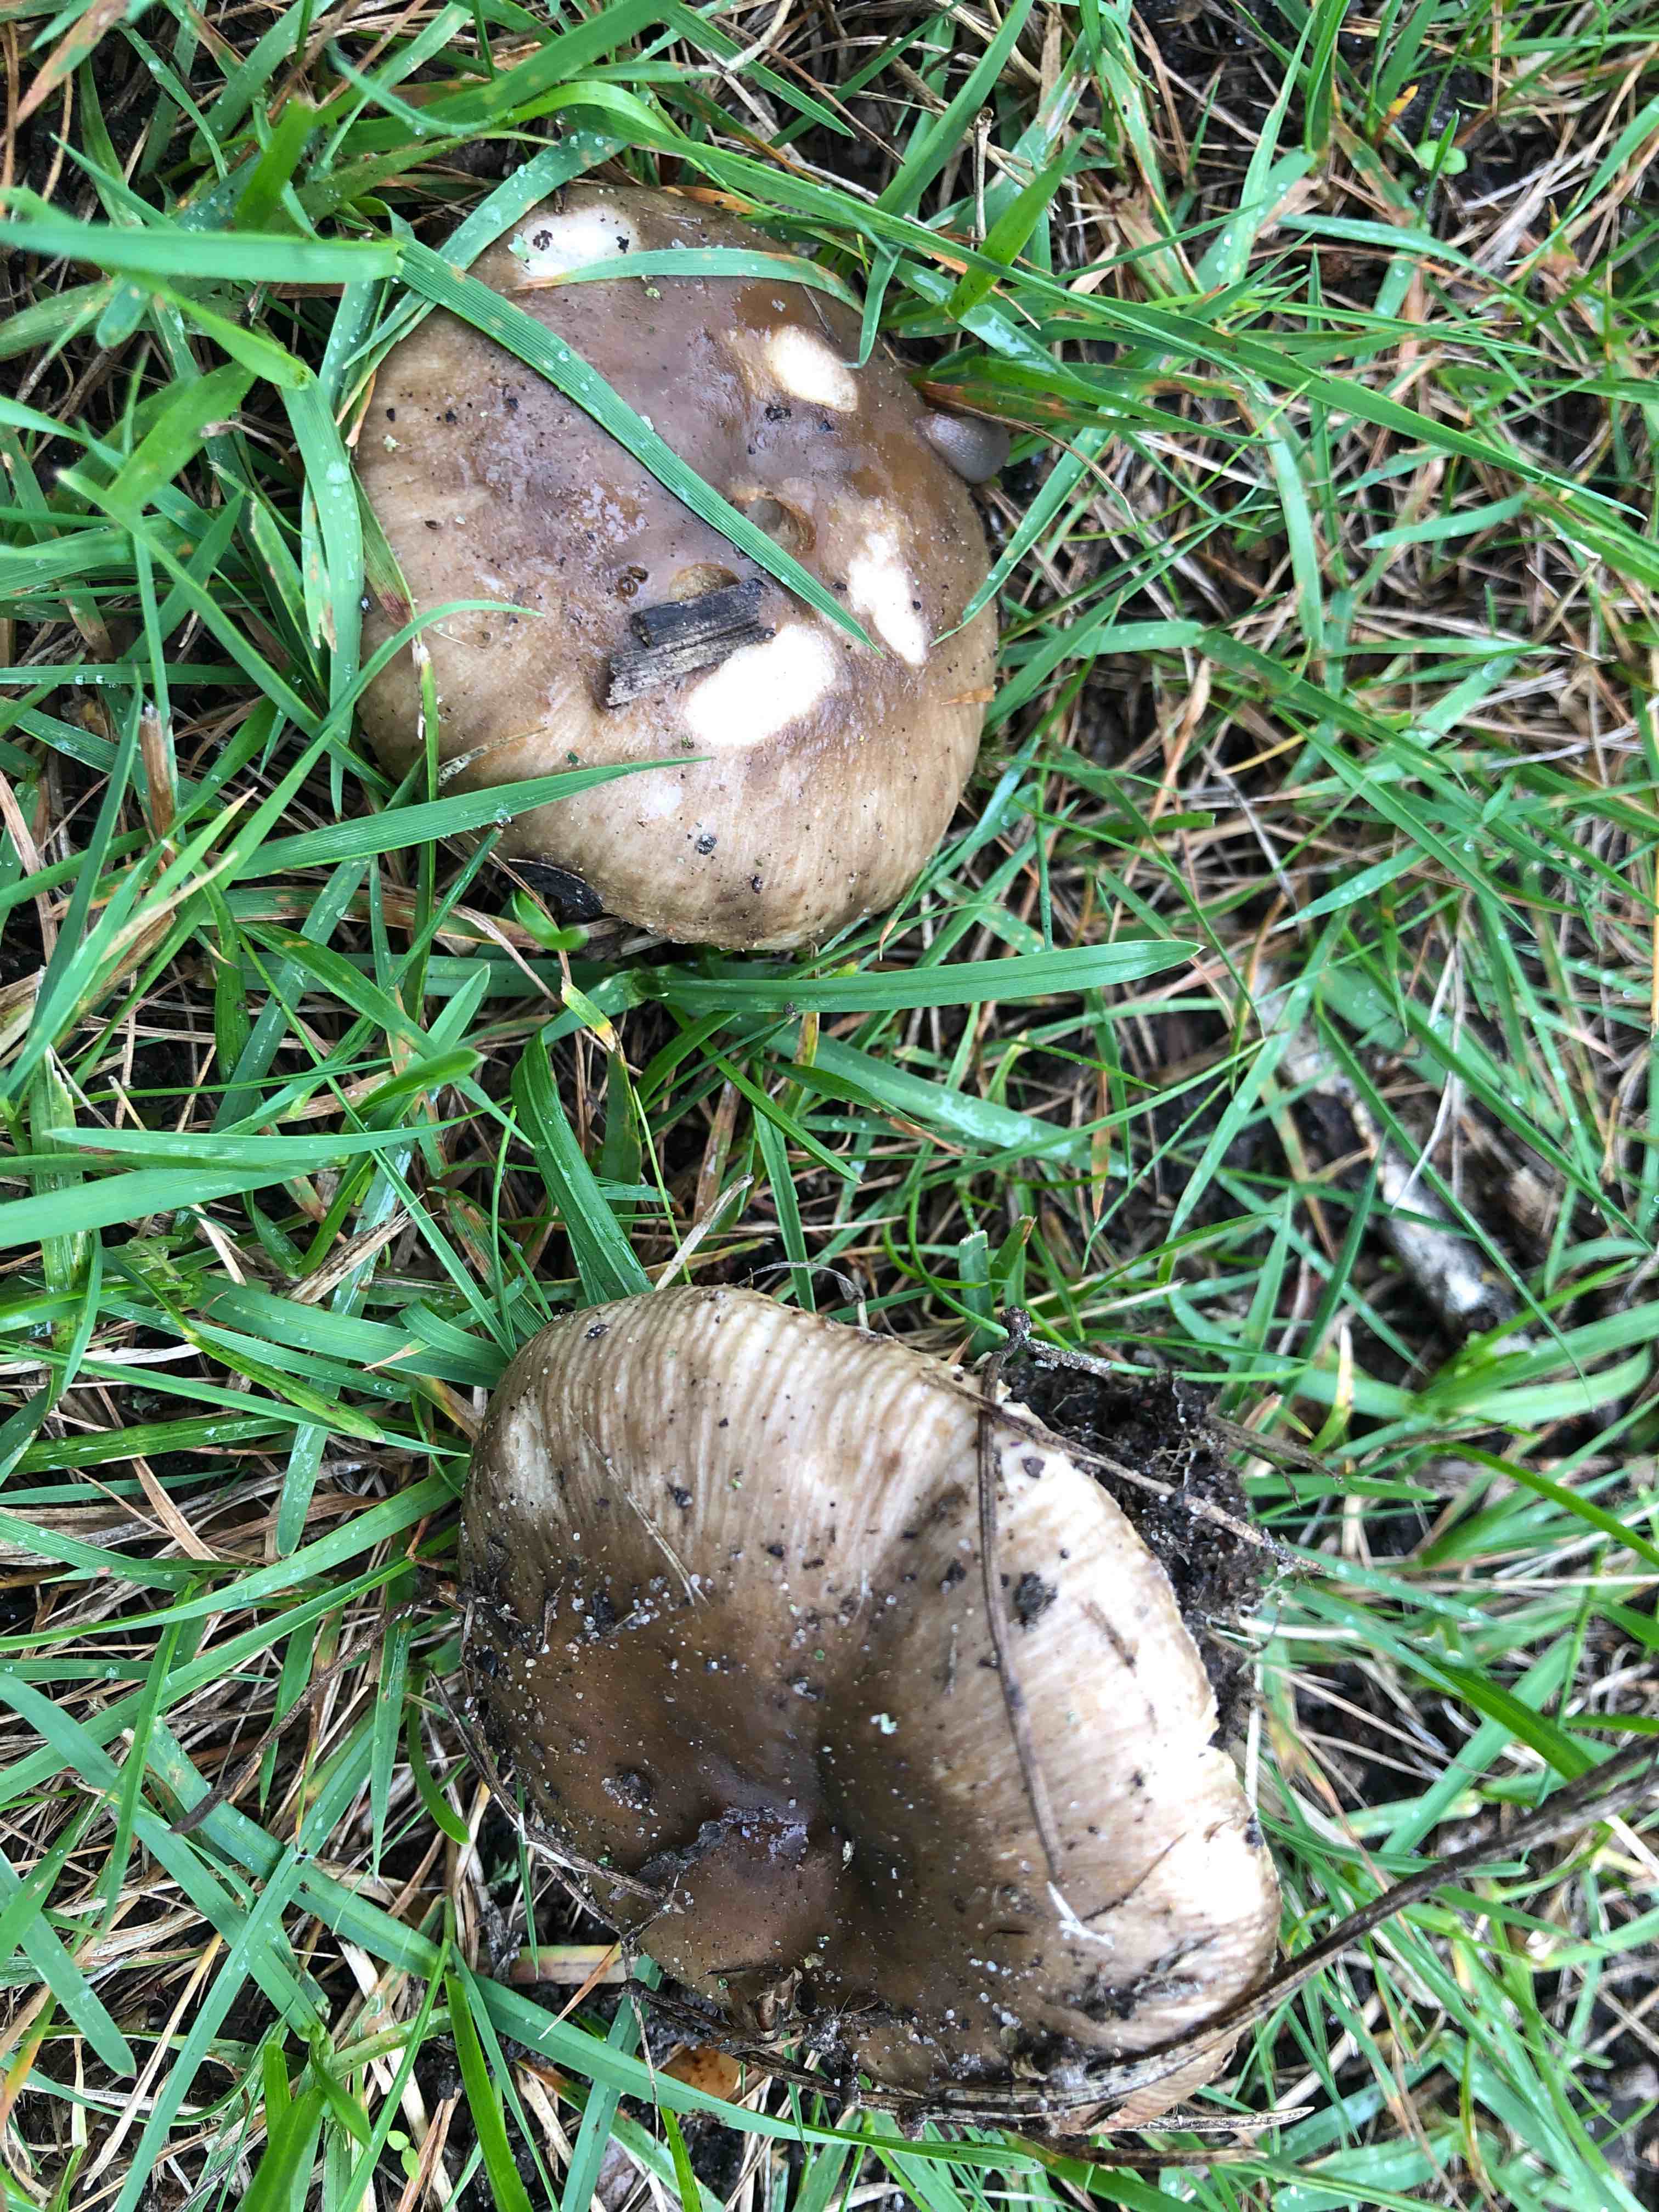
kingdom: Fungi
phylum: Basidiomycota
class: Agaricomycetes
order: Russulales
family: Russulaceae
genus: Russula
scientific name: Russula amoenolens
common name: skarp kam-skørhat
